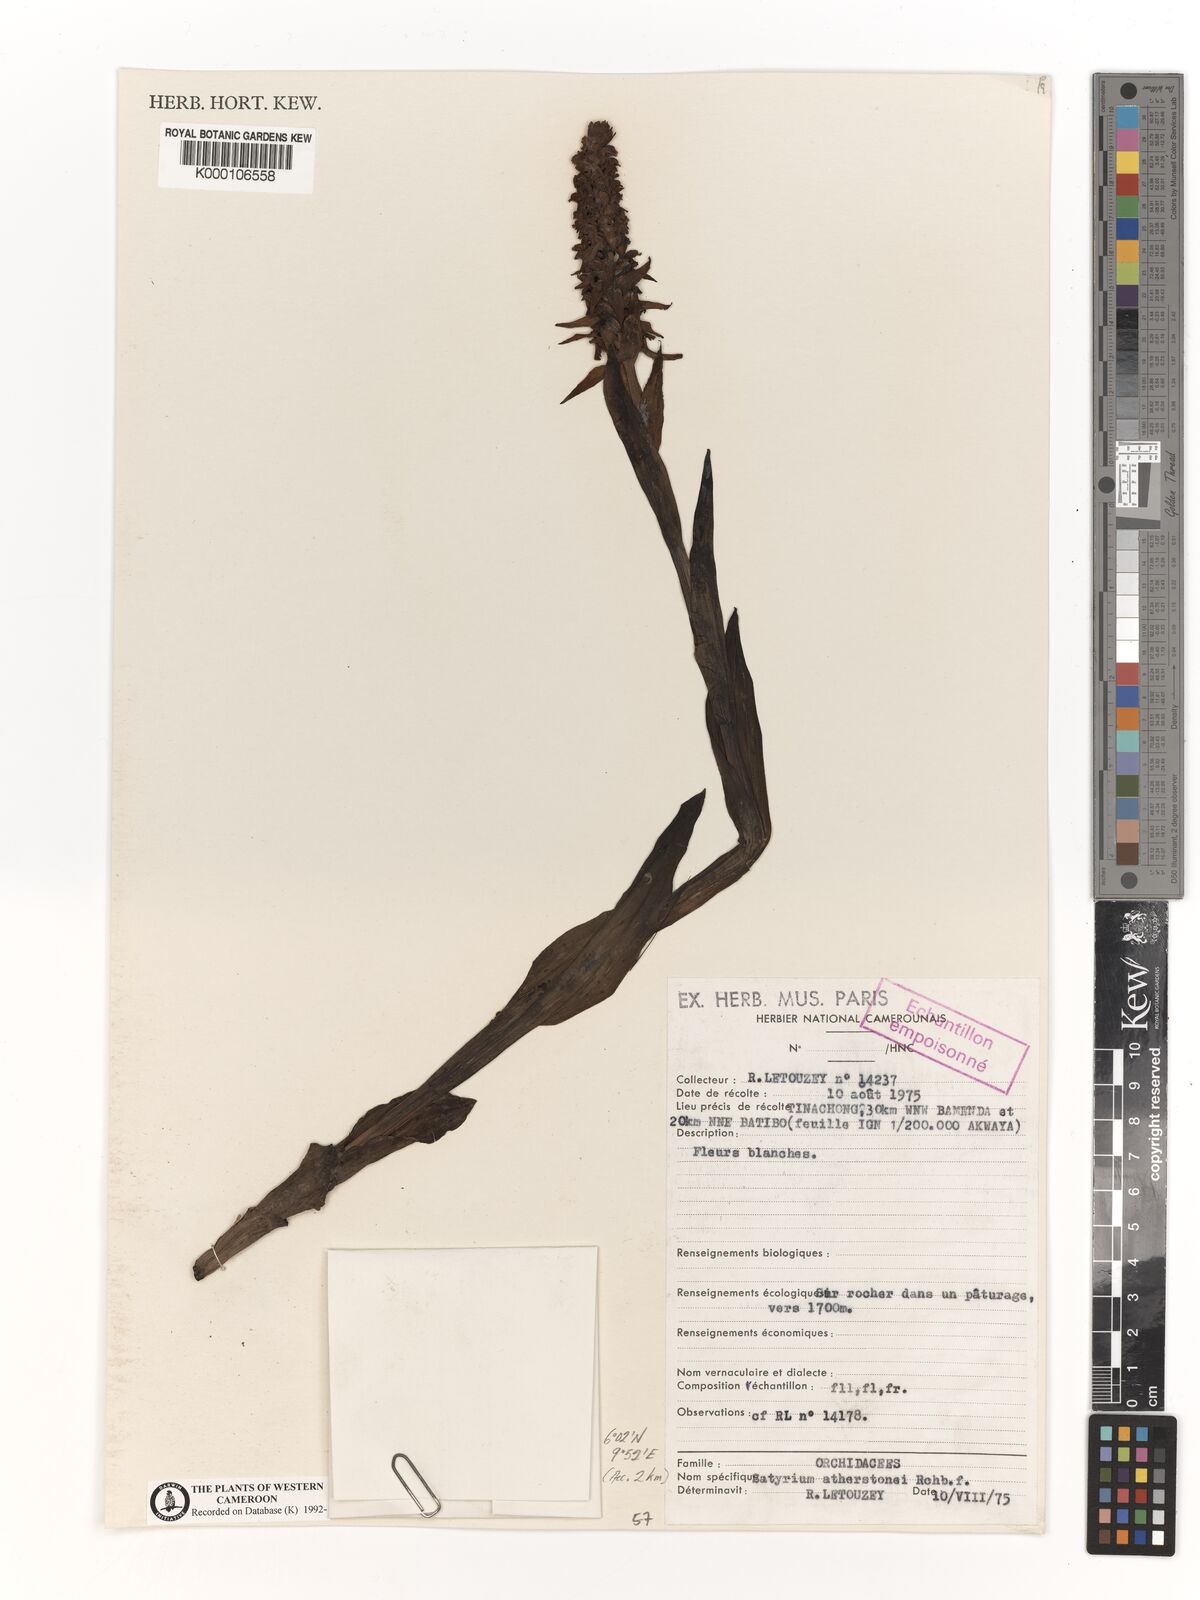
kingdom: Plantae
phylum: Tracheophyta
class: Liliopsida
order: Asparagales
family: Orchidaceae
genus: Satyrium
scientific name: Satyrium trinerve
